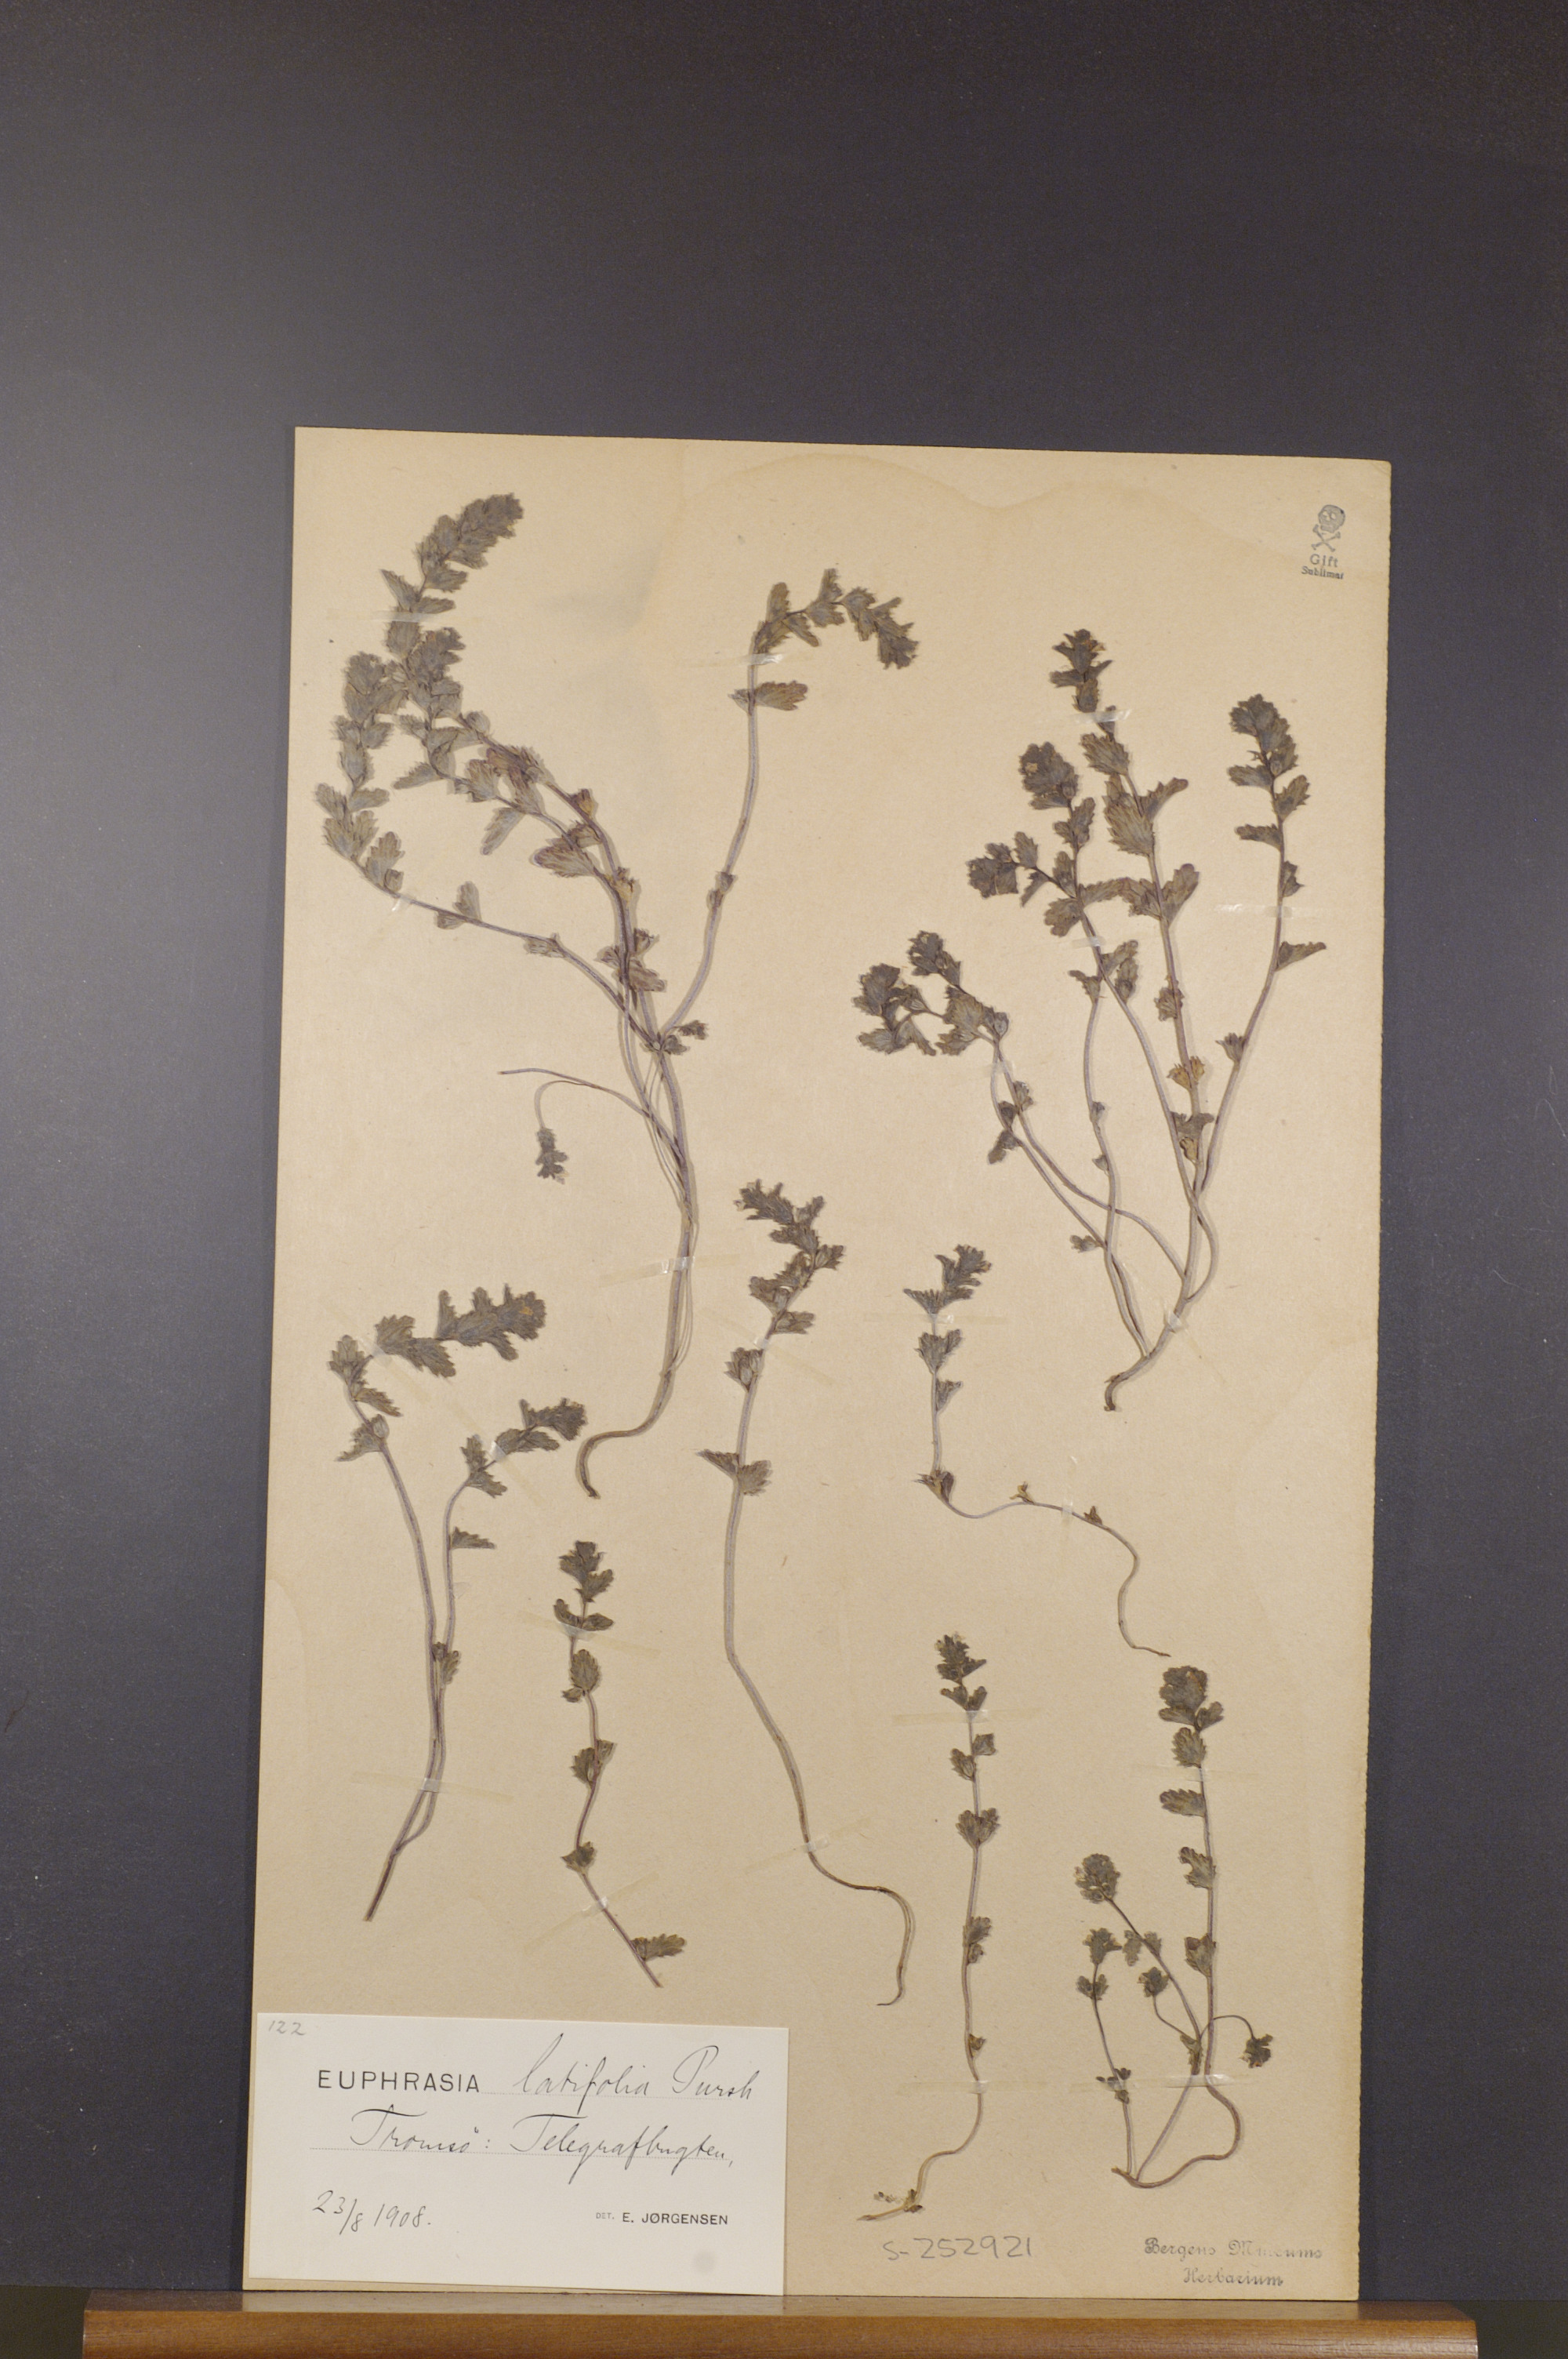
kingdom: Plantae
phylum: Tracheophyta
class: Magnoliopsida
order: Lamiales
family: Orobanchaceae
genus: Euphrasia
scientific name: Euphrasia wettsteinii
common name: Wettstein's eyebright
